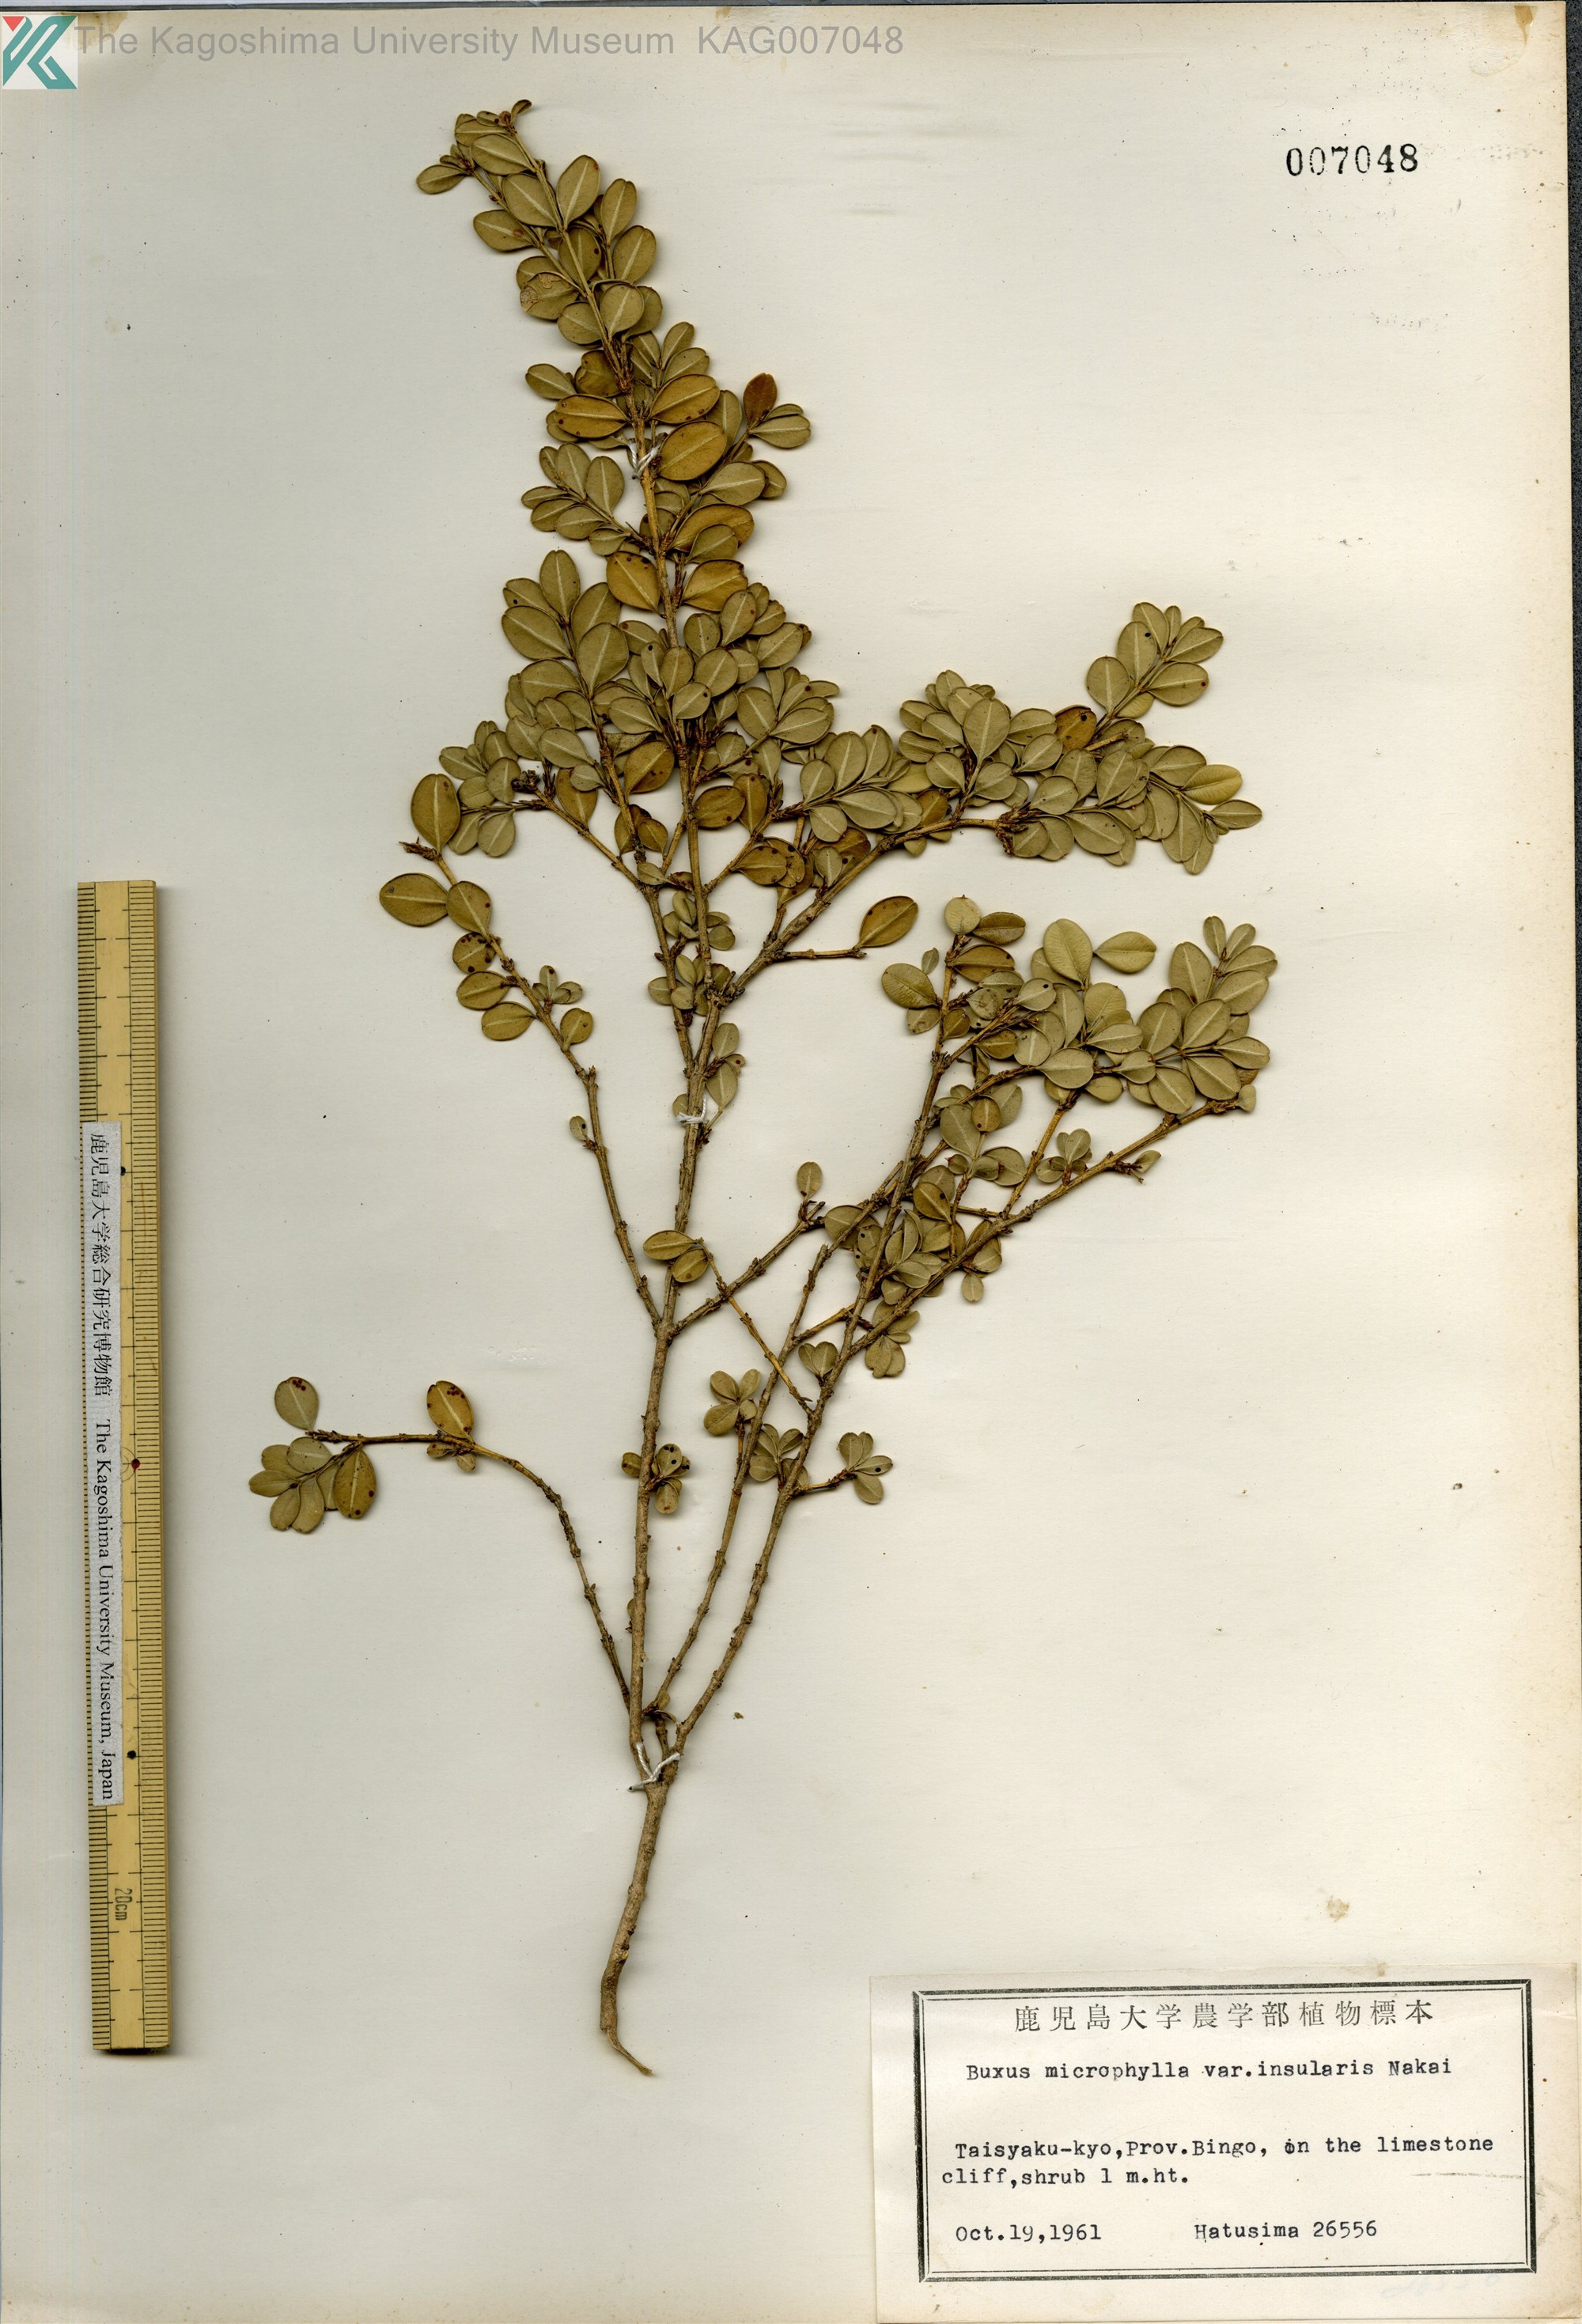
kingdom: Plantae
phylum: Tracheophyta
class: Magnoliopsida
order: Buxales
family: Buxaceae
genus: Buxus
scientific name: Buxus sinica
